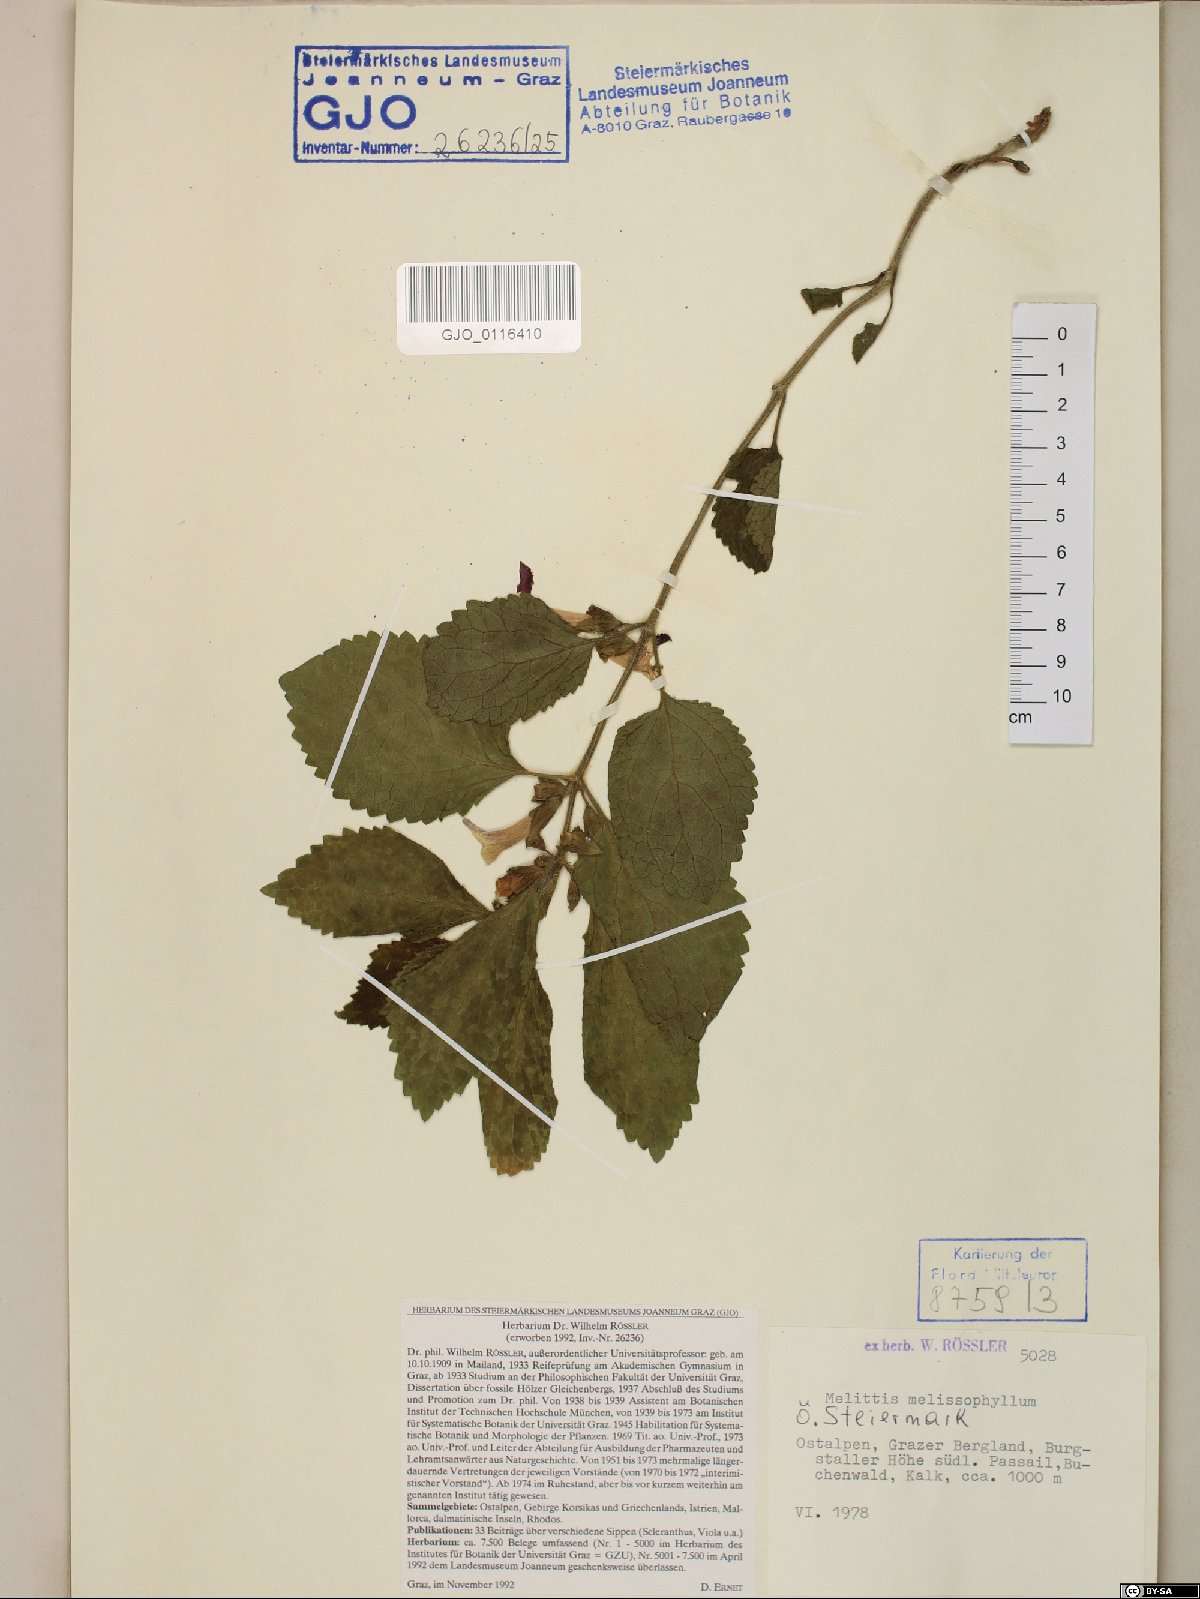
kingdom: Plantae
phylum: Tracheophyta
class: Magnoliopsida
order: Lamiales
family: Lamiaceae
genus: Melittis
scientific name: Melittis melissophyllum
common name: Bastard balm
